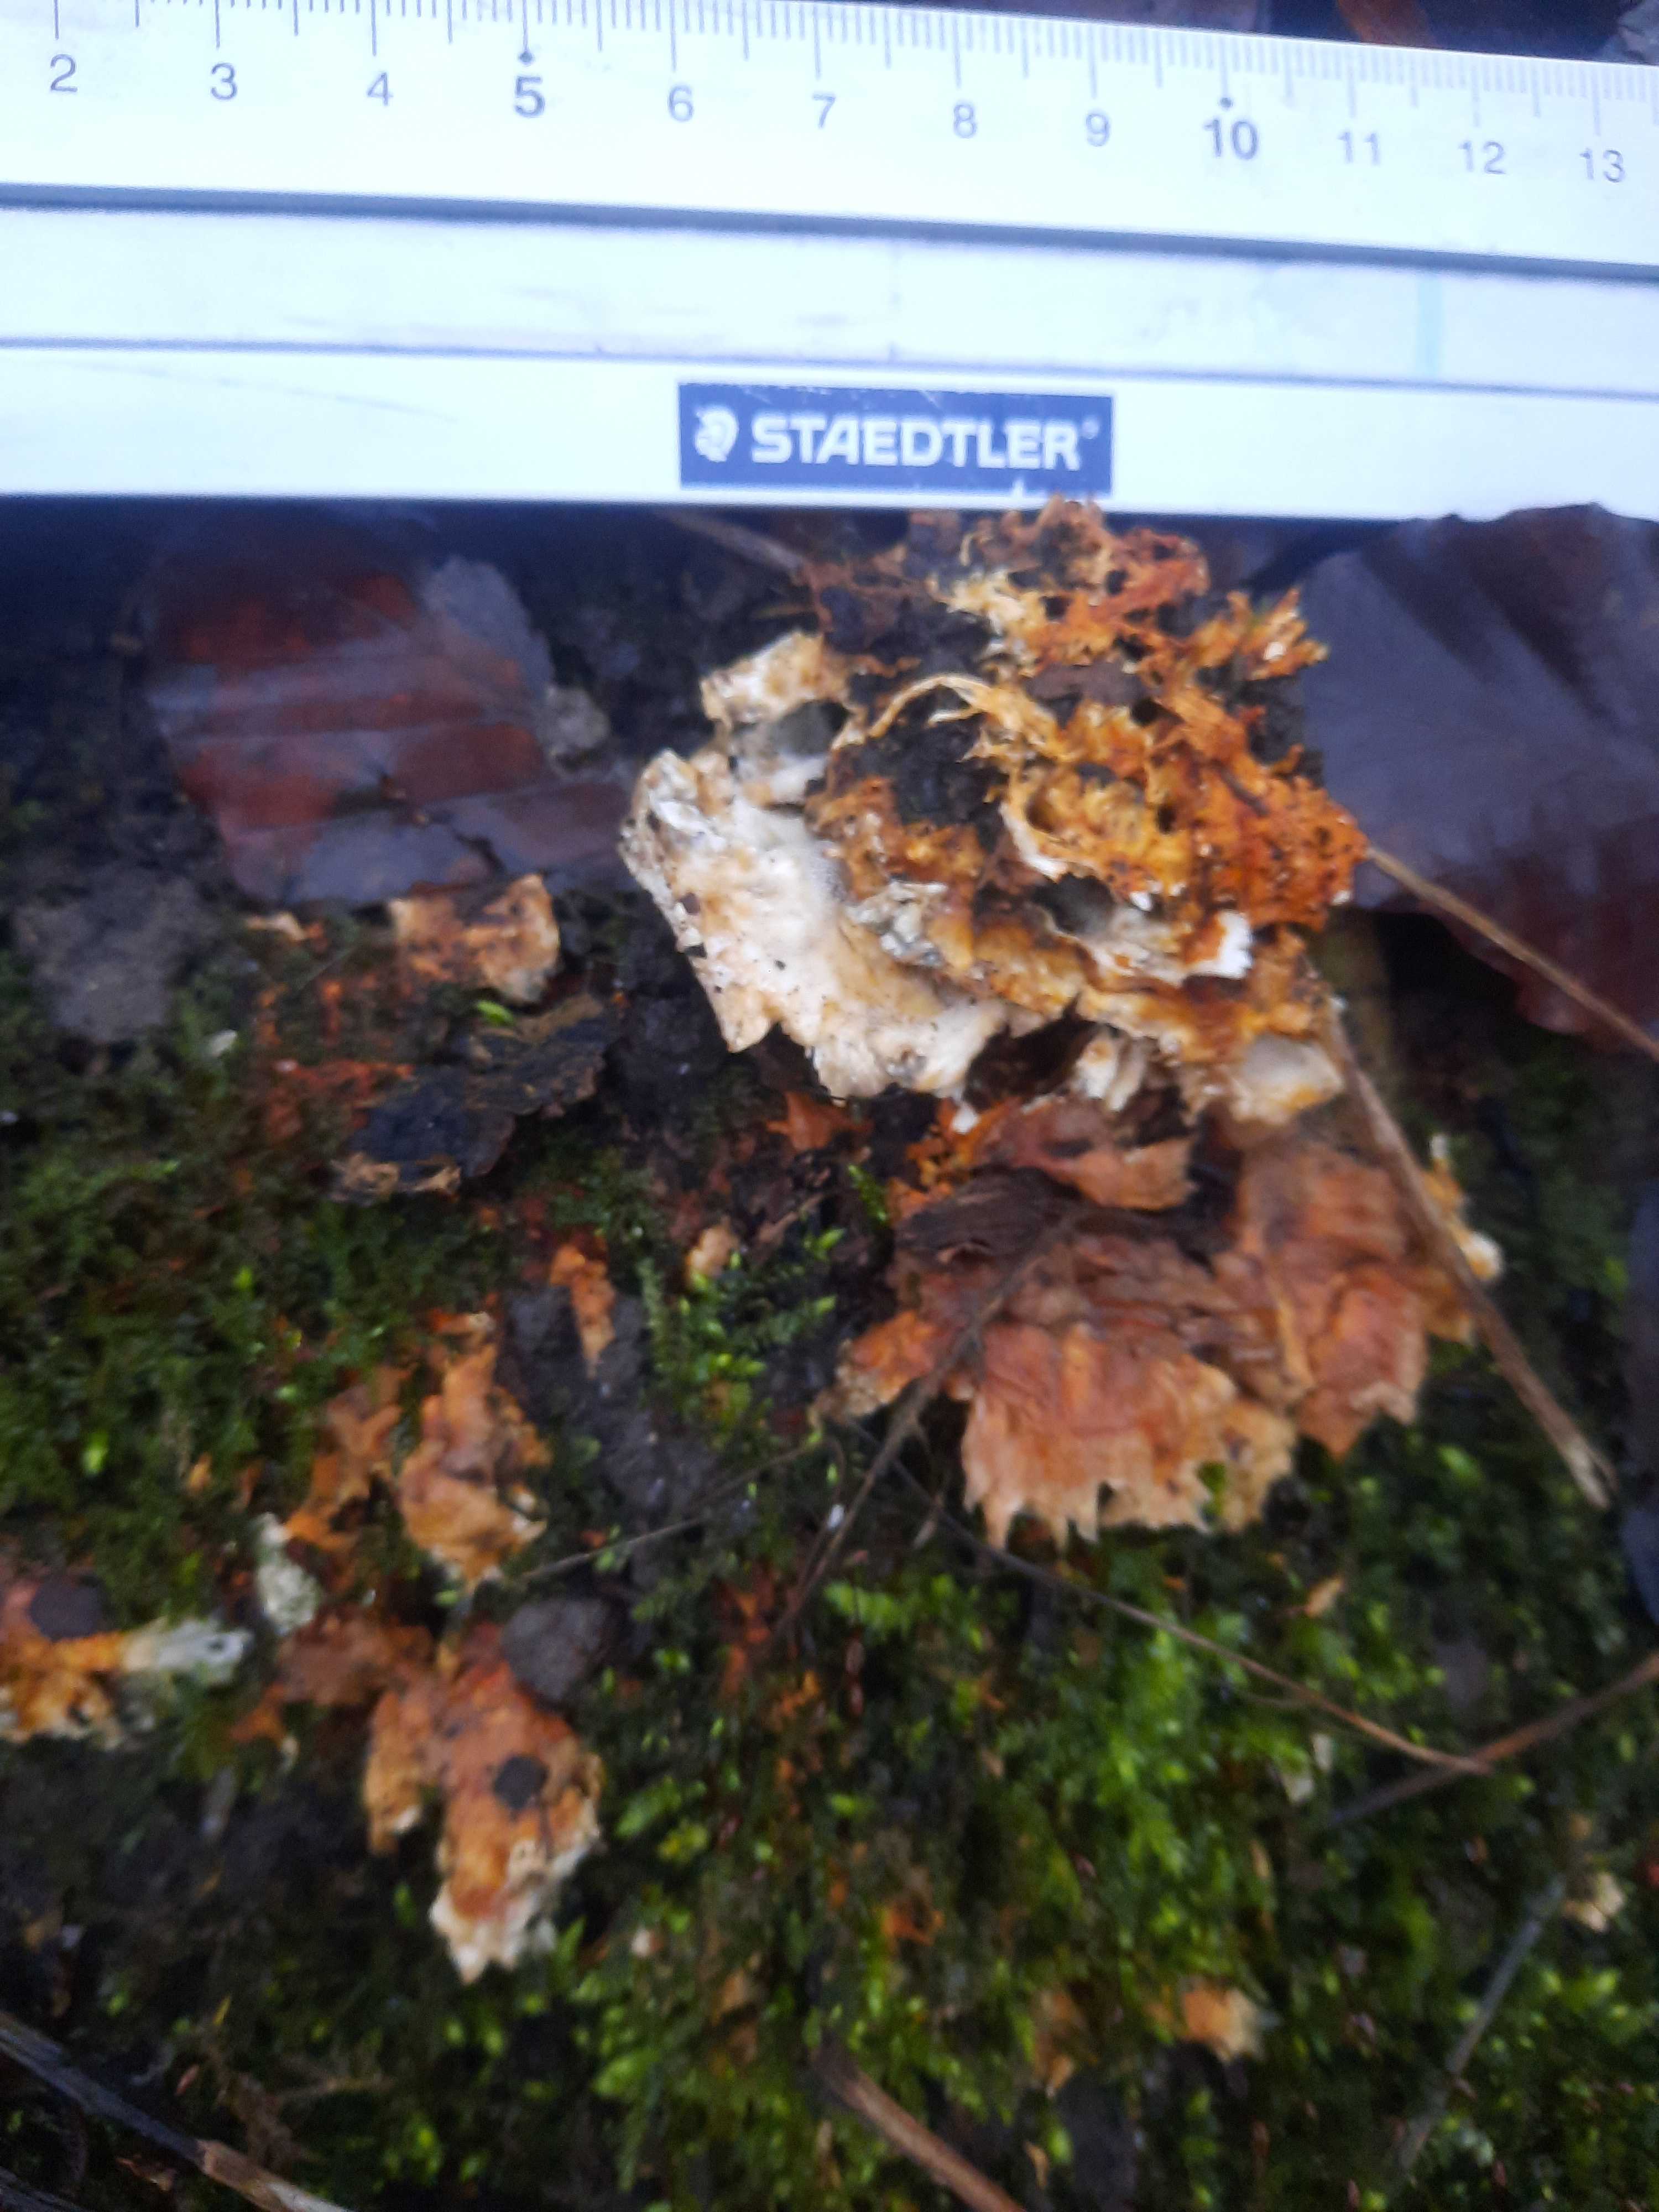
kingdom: Fungi
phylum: Basidiomycota
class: Agaricomycetes
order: Polyporales
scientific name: Polyporales
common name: poresvampordenen
